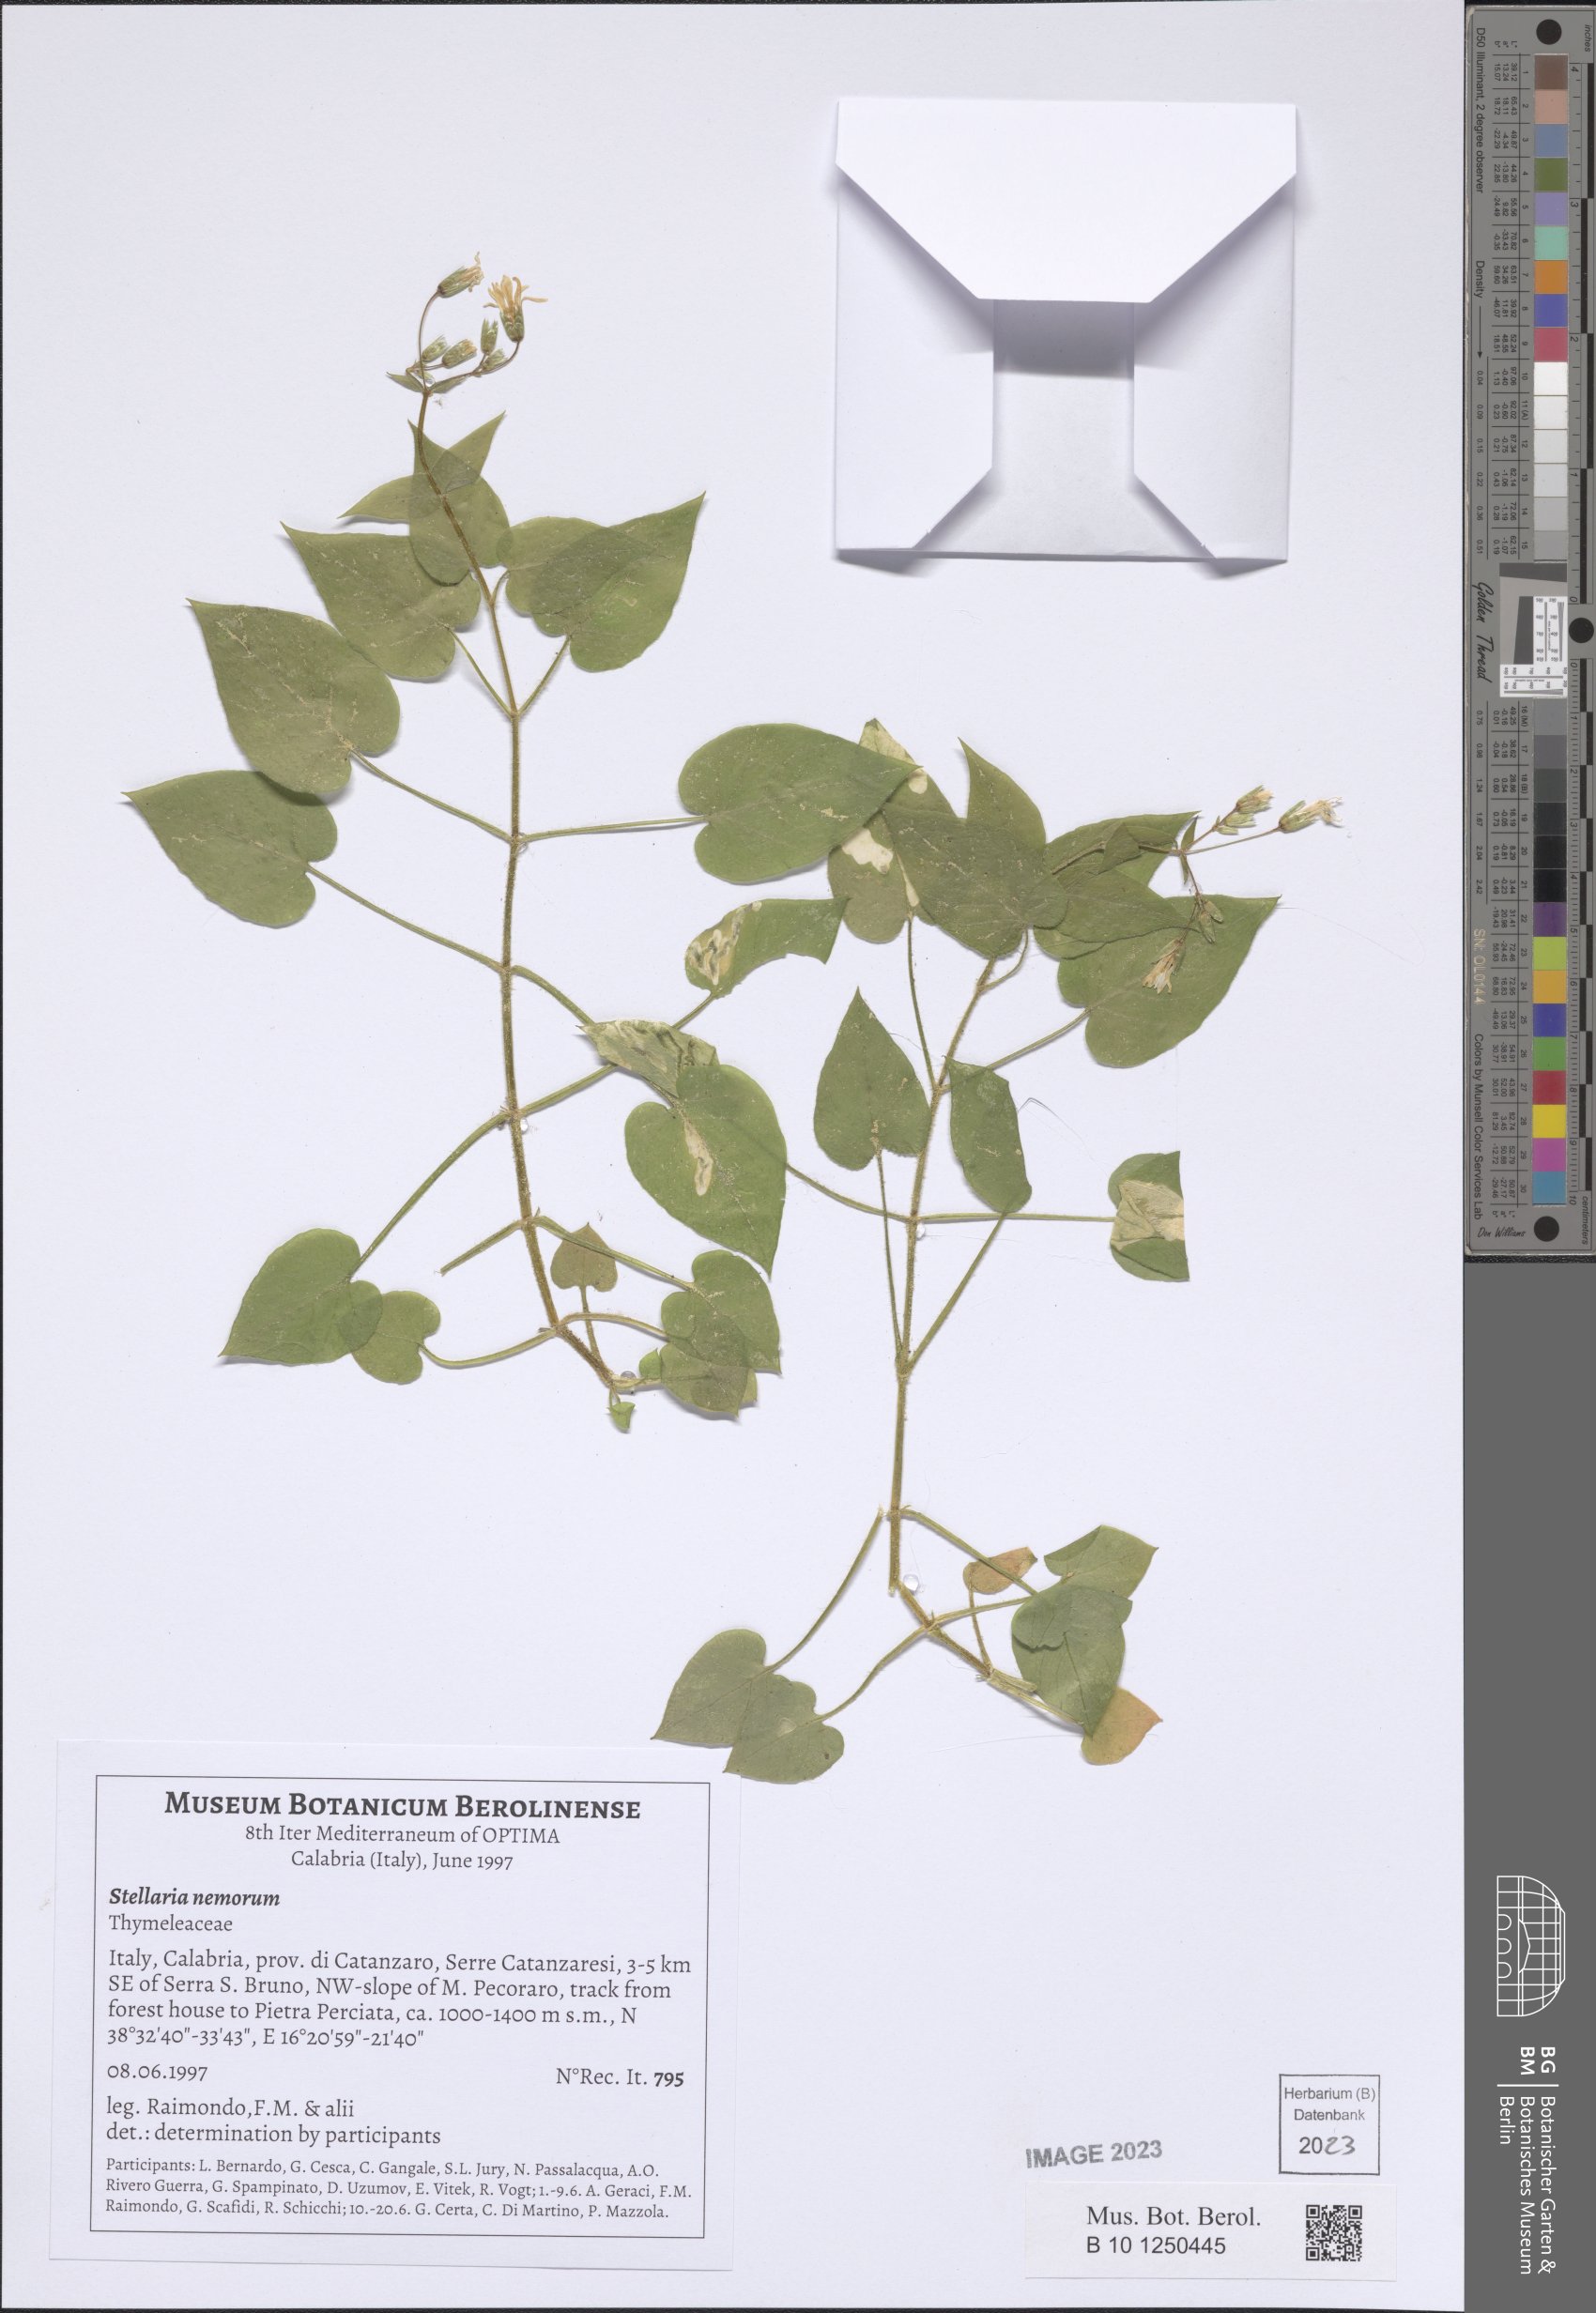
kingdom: Plantae
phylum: Tracheophyta
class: Magnoliopsida
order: Caryophyllales
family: Caryophyllaceae
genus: Stellaria
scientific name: Stellaria nemorum
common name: Wood stitchwort
